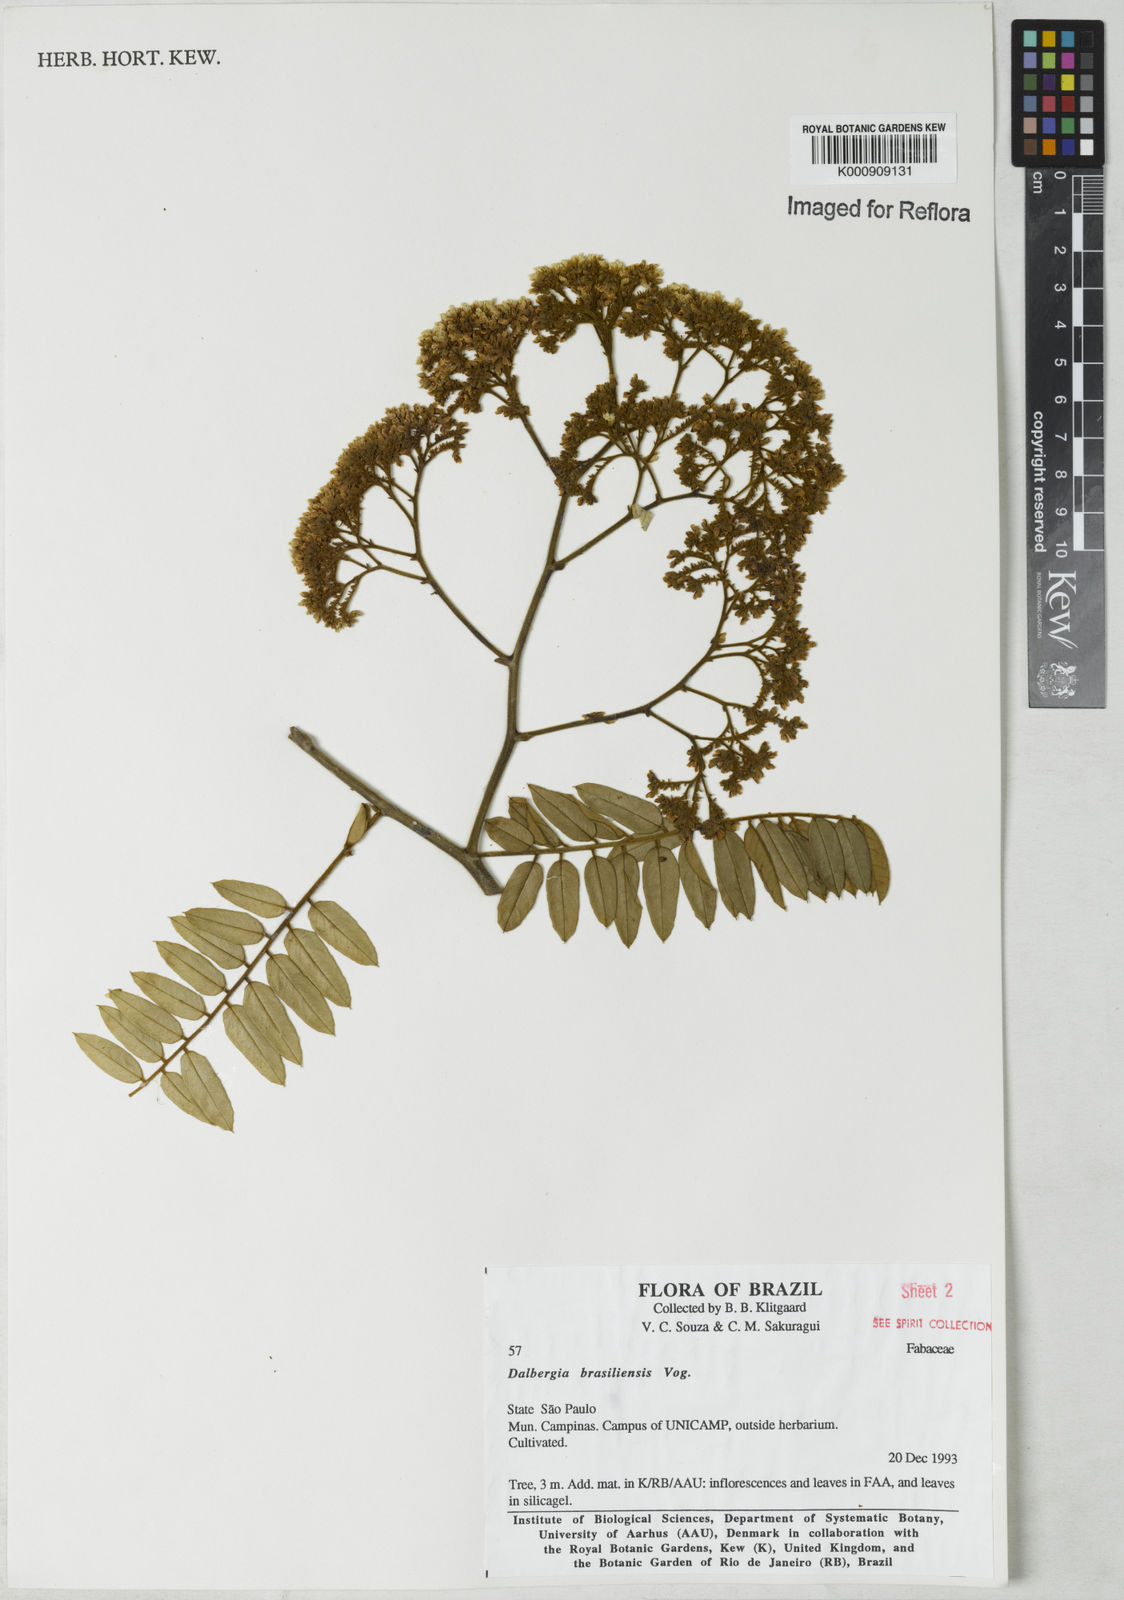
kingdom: Plantae
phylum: Tracheophyta
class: Magnoliopsida
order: Fabales
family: Fabaceae
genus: Dalbergia
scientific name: Dalbergia brasiliensis
